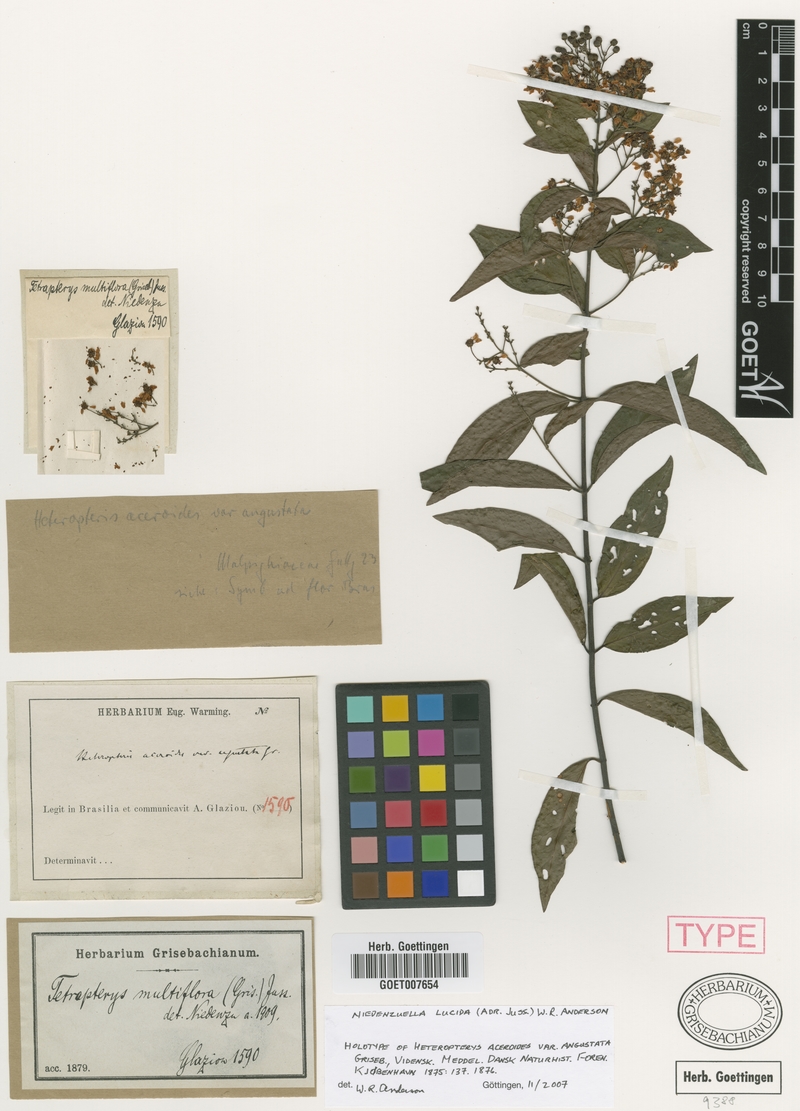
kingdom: Plantae
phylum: Tracheophyta
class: Magnoliopsida
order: Malpighiales
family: Malpighiaceae
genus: Niedenzuella
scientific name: Niedenzuella lucida
